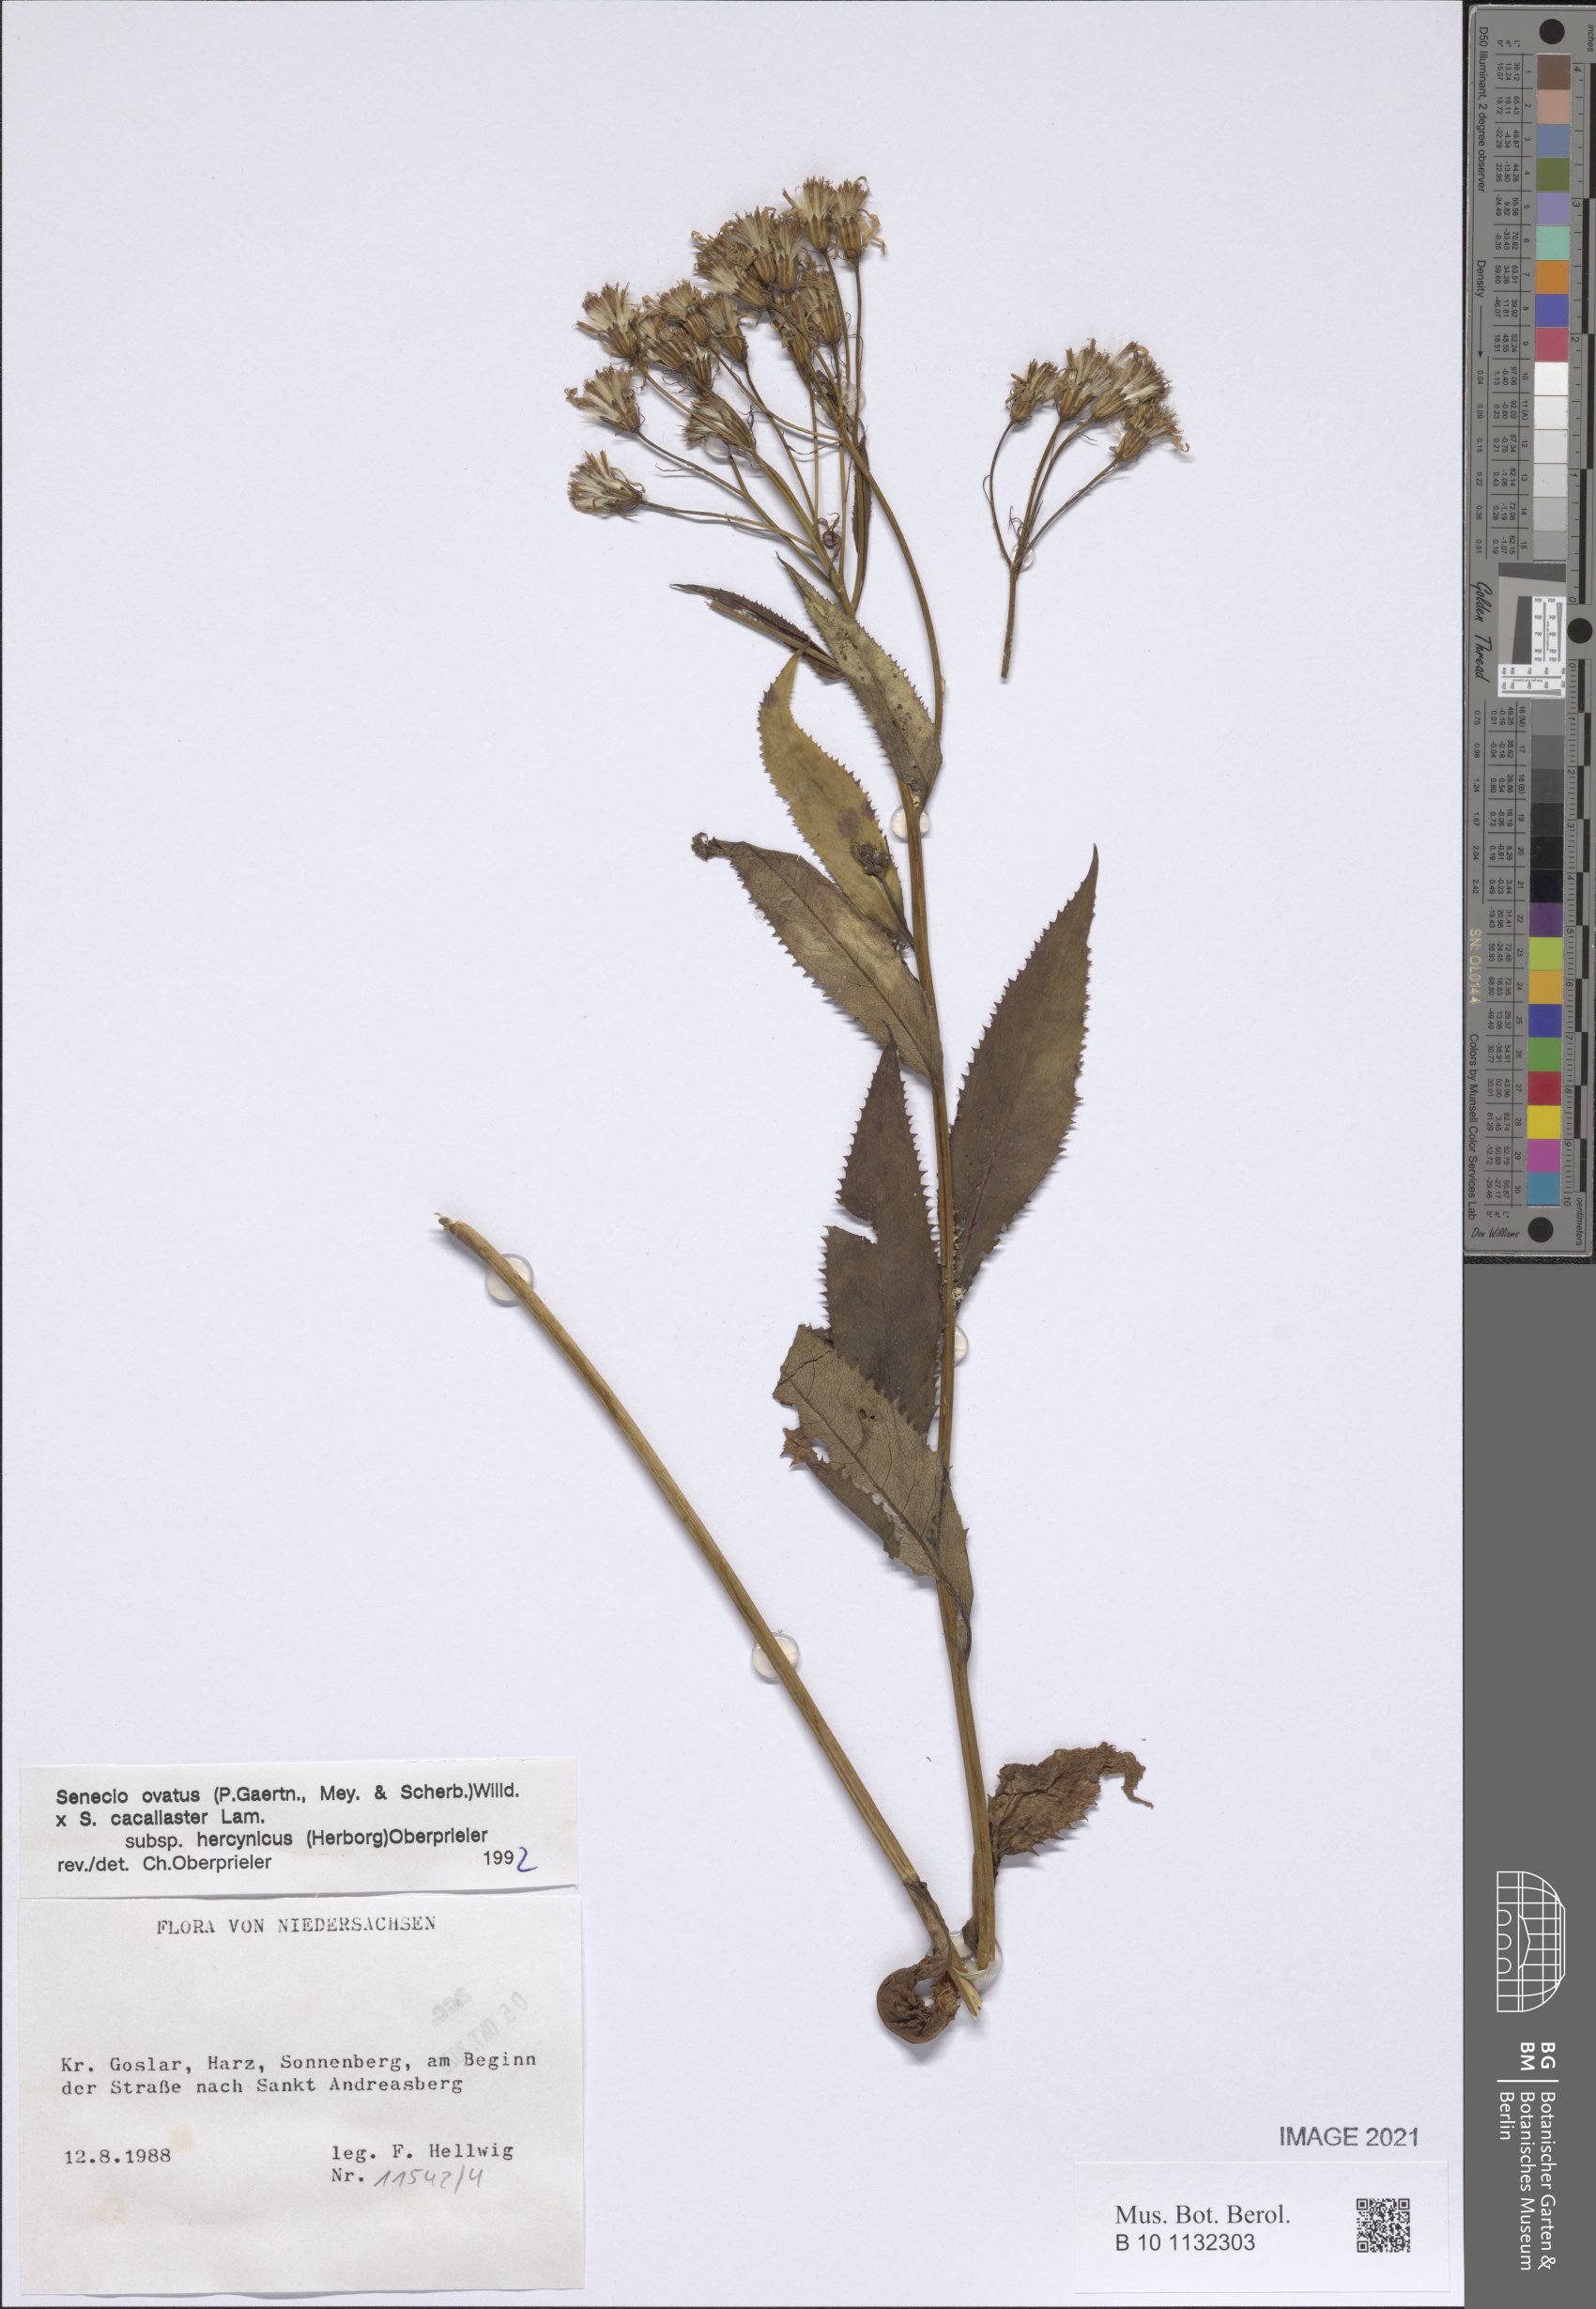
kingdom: Plantae
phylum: Tracheophyta
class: Magnoliopsida
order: Asterales
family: Asteraceae
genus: Senecio
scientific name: Senecio ovatus
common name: Wood ragwort
